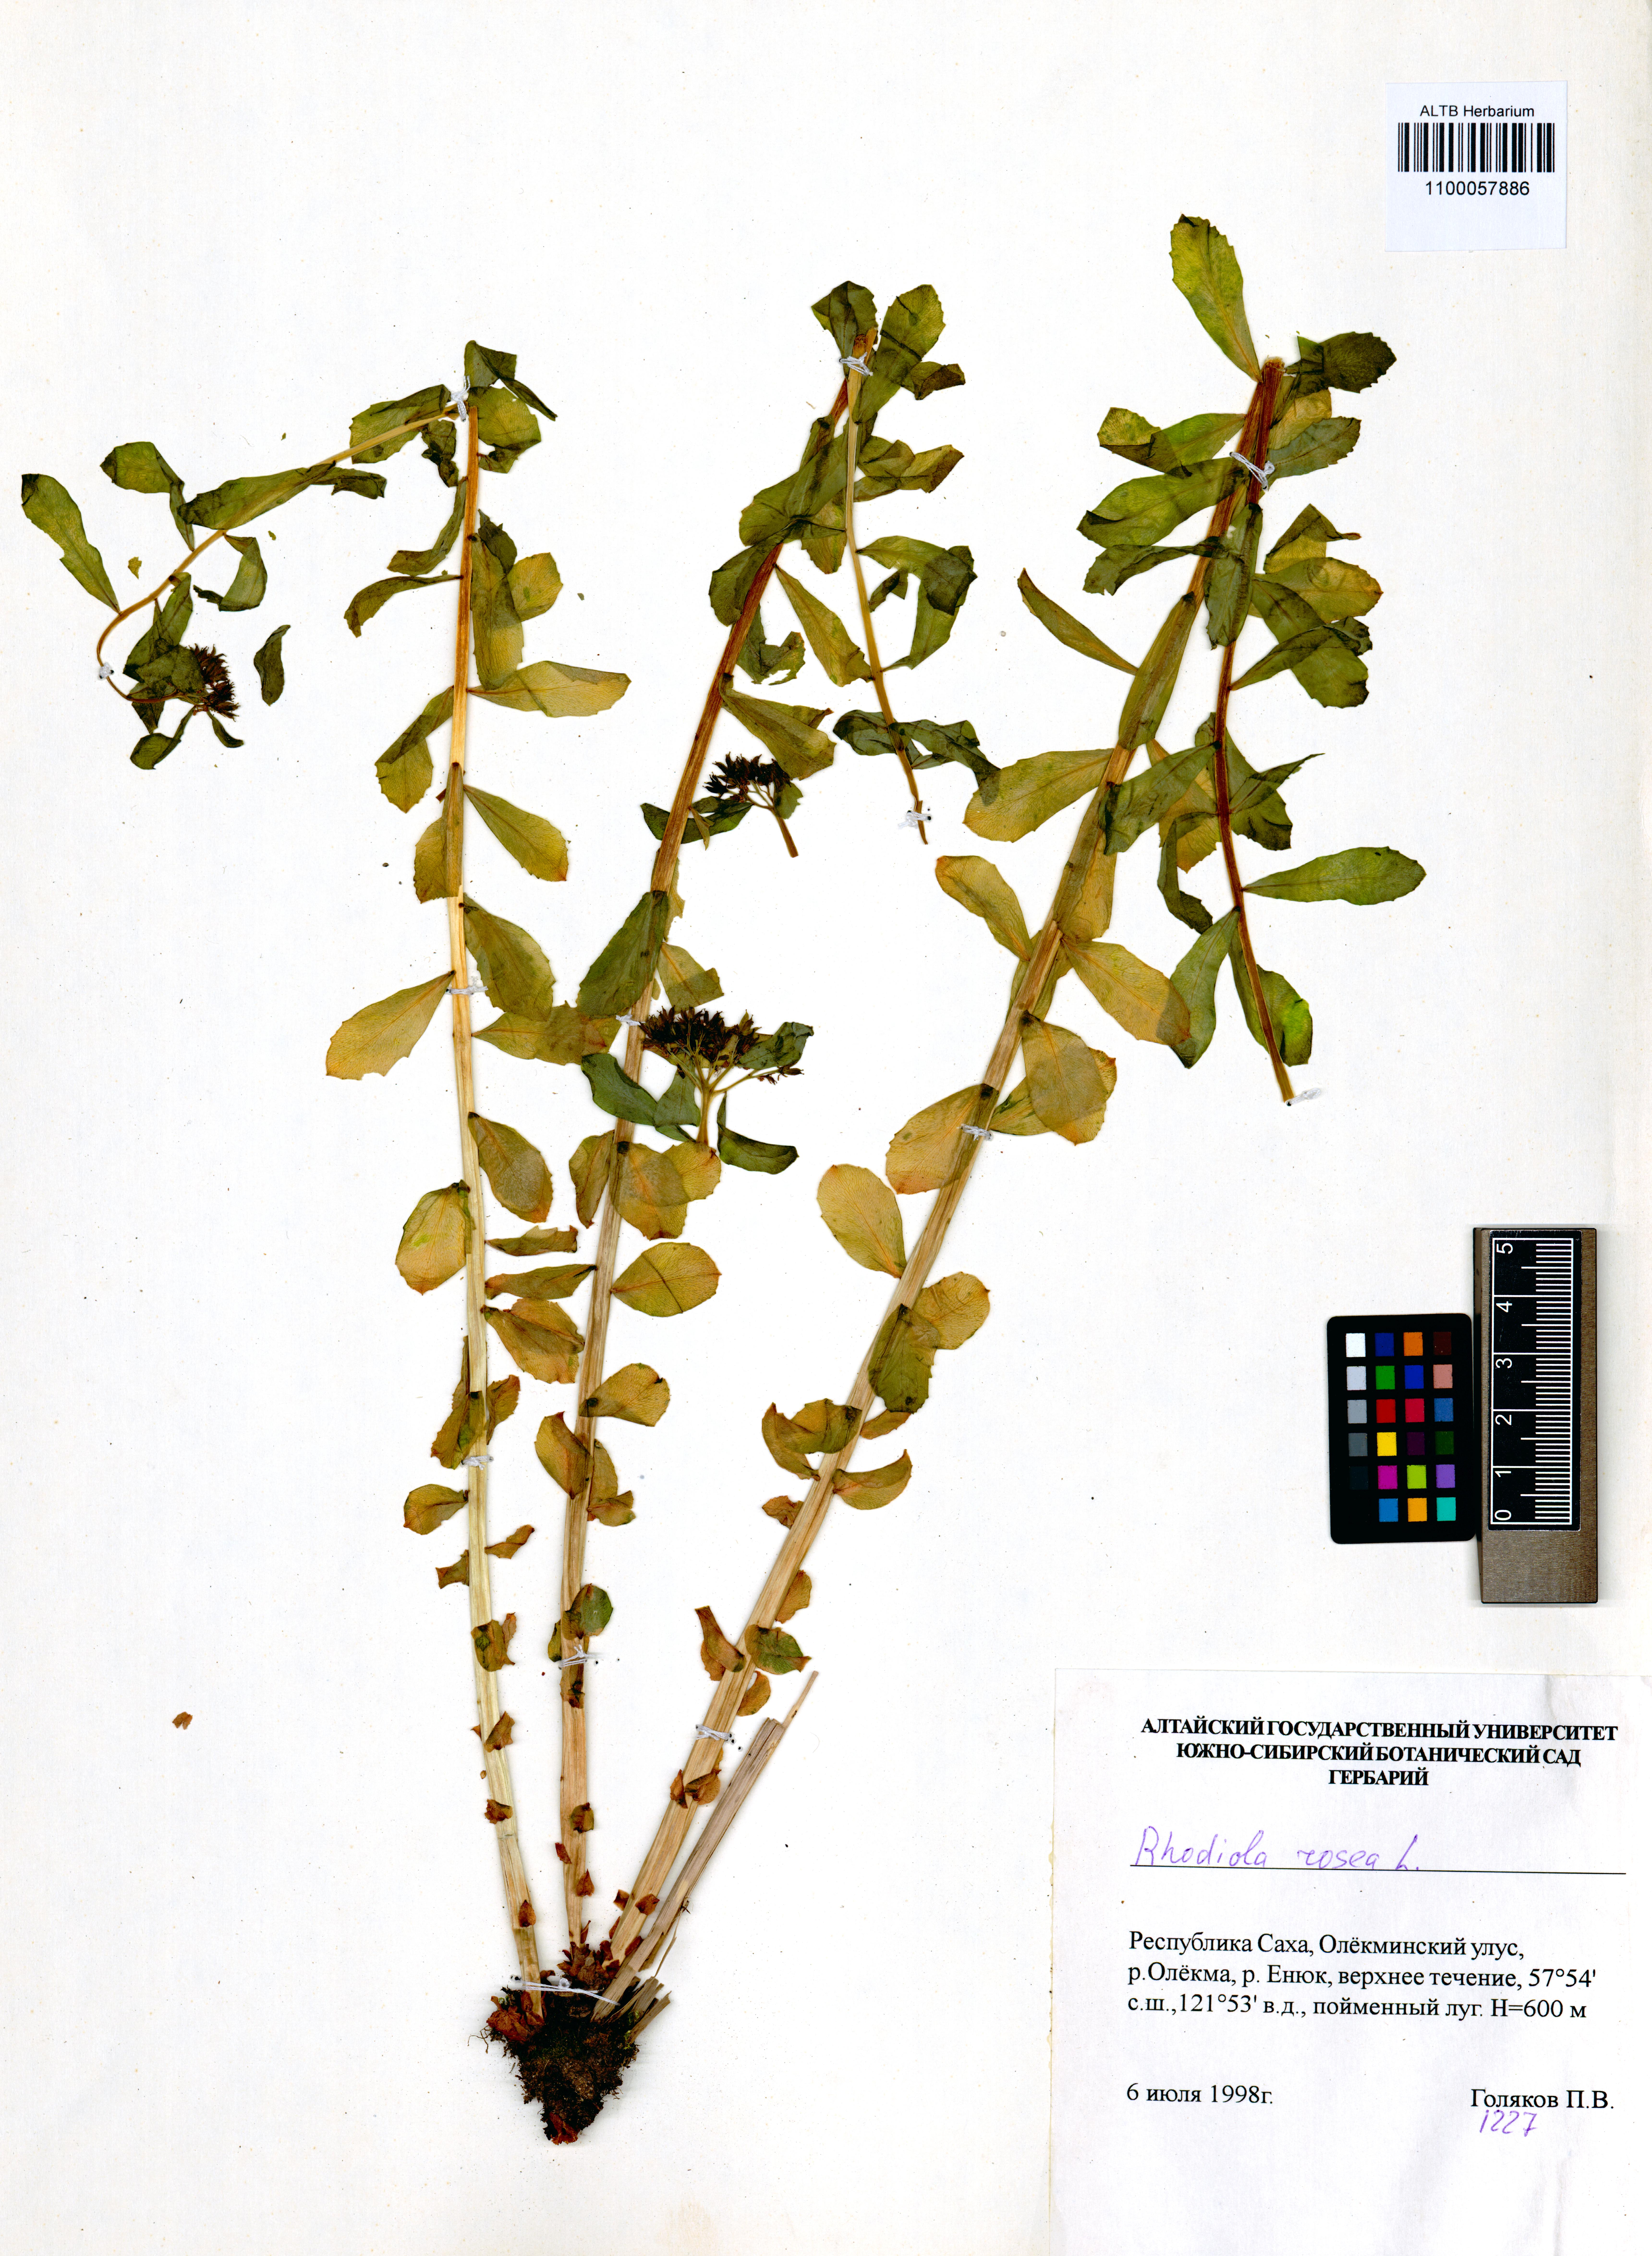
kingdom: Plantae
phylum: Tracheophyta
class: Magnoliopsida
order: Saxifragales
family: Crassulaceae
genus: Rhodiola
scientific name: Rhodiola rosea
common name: Roseroot
